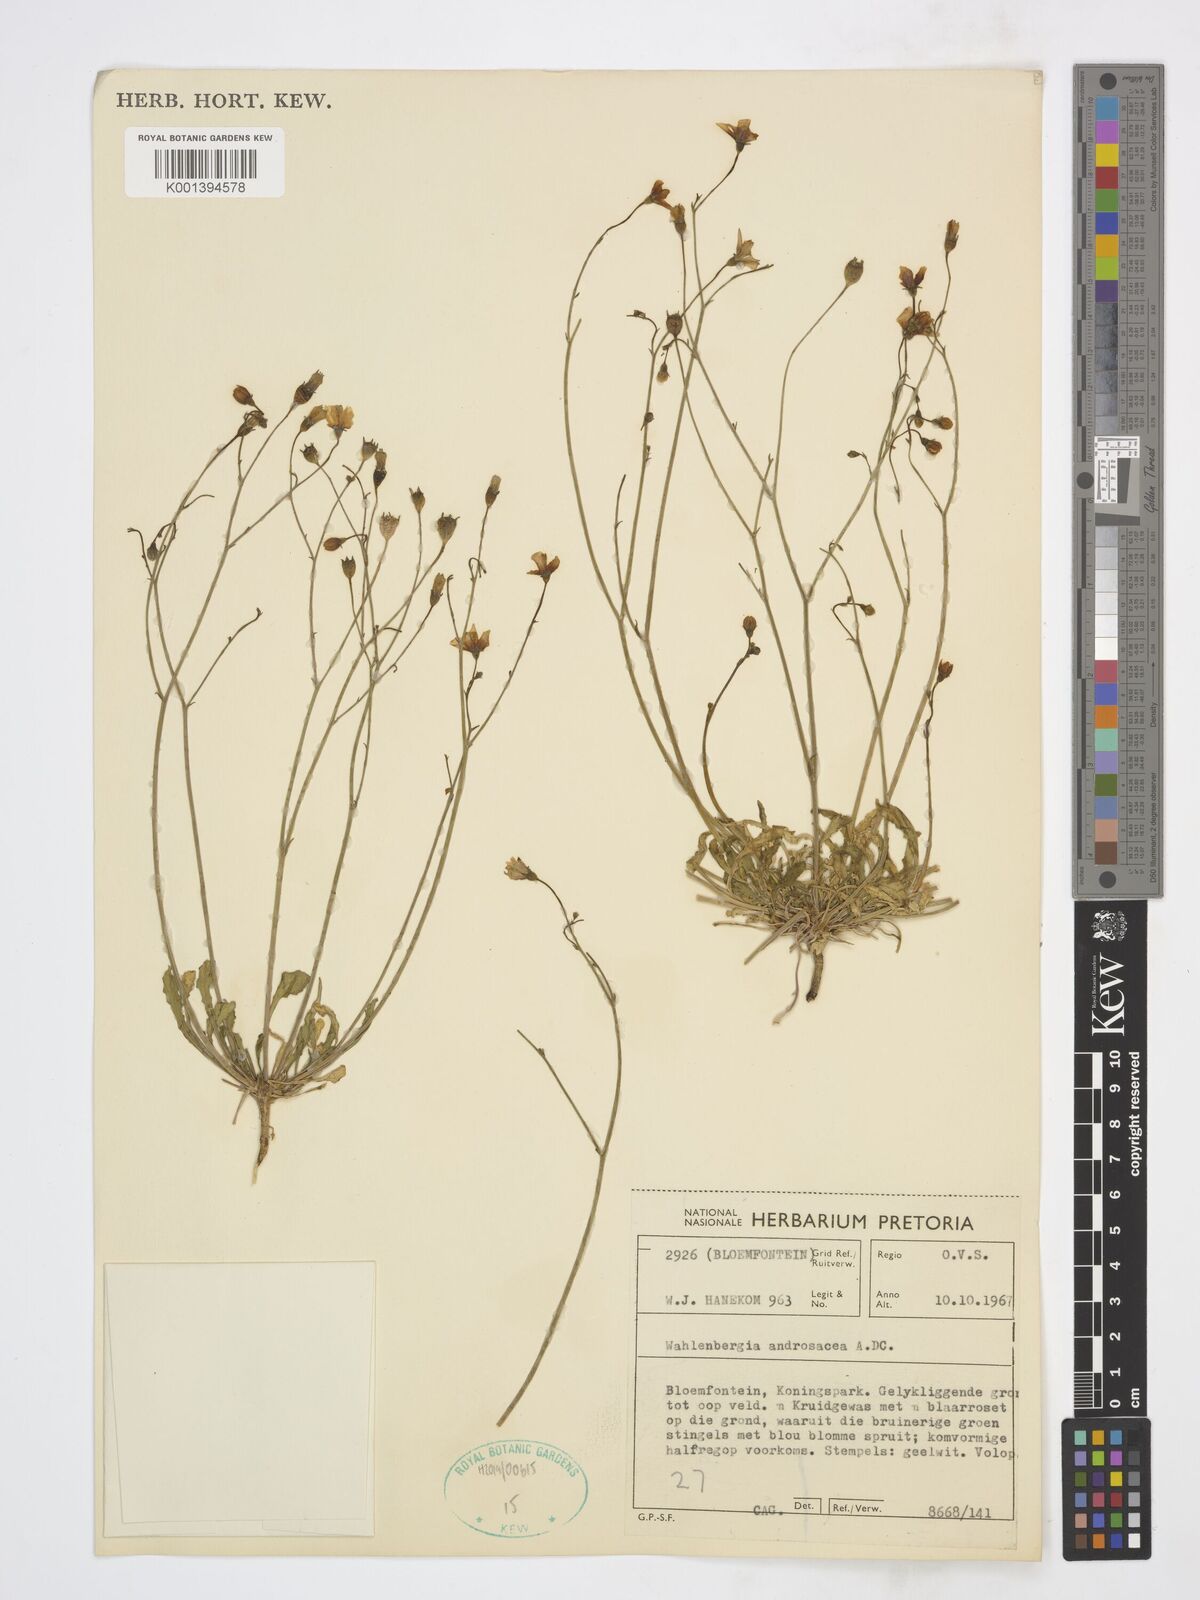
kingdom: Plantae
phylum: Tracheophyta
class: Magnoliopsida
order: Asterales
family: Campanulaceae
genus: Wahlenbergia
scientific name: Wahlenbergia androsacea
